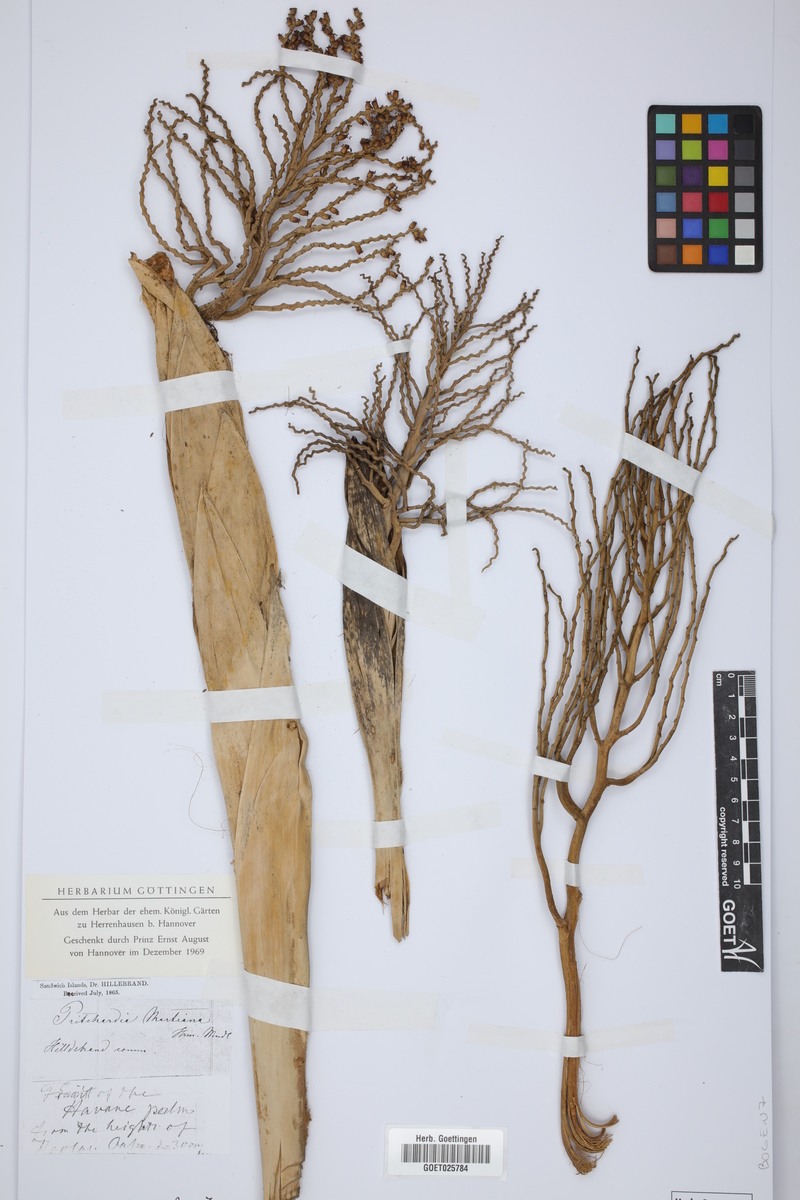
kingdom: Plantae
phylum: Tracheophyta
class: Liliopsida
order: Arecales
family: Arecaceae
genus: Pritchardia
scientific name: Pritchardia martii
